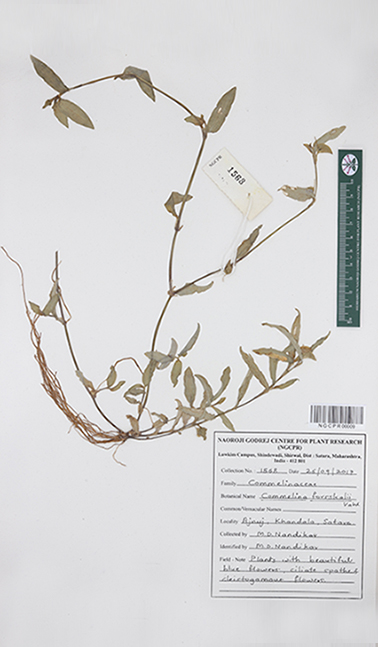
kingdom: Plantae
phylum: Tracheophyta
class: Liliopsida
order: Commelinales
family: Commelinaceae
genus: Commelina
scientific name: Commelina forskaolii
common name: Rat's ear
